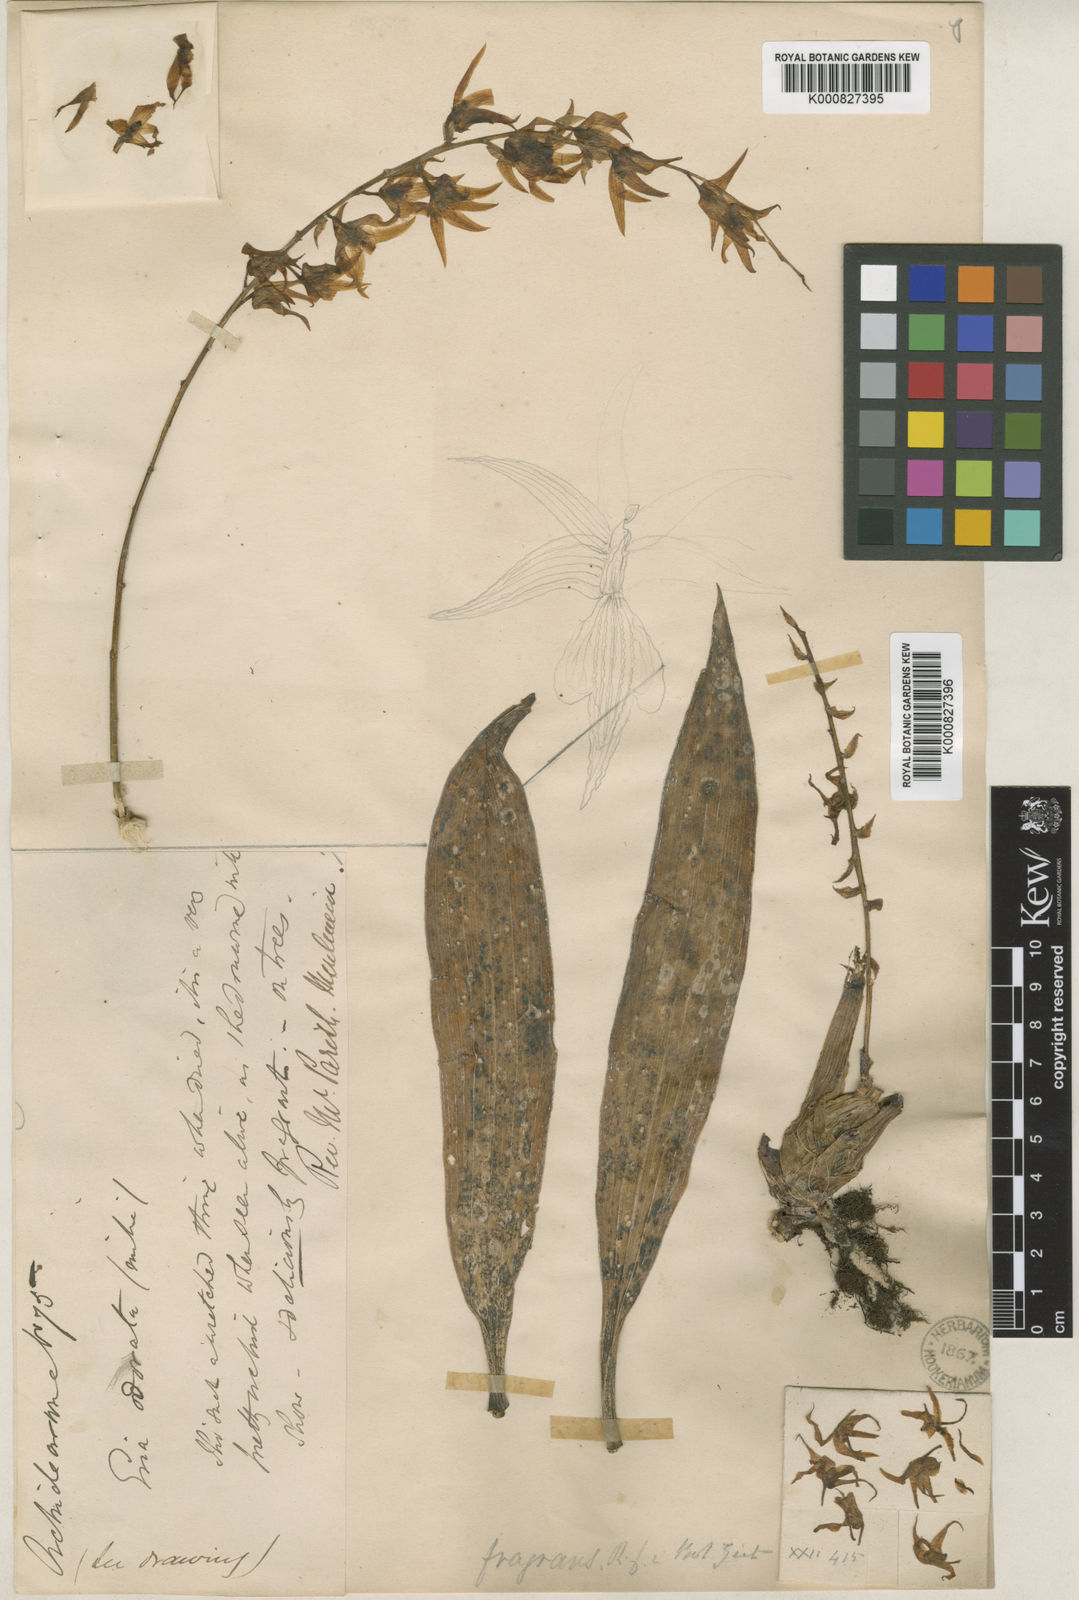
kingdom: Plantae
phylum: Tracheophyta
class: Liliopsida
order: Asparagales
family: Orchidaceae
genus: Eria
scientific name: Eria javanica
